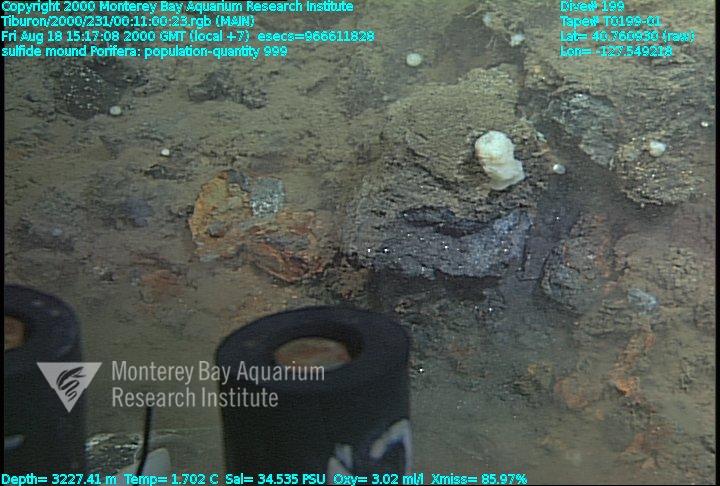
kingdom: Animalia
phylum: Porifera
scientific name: Porifera
